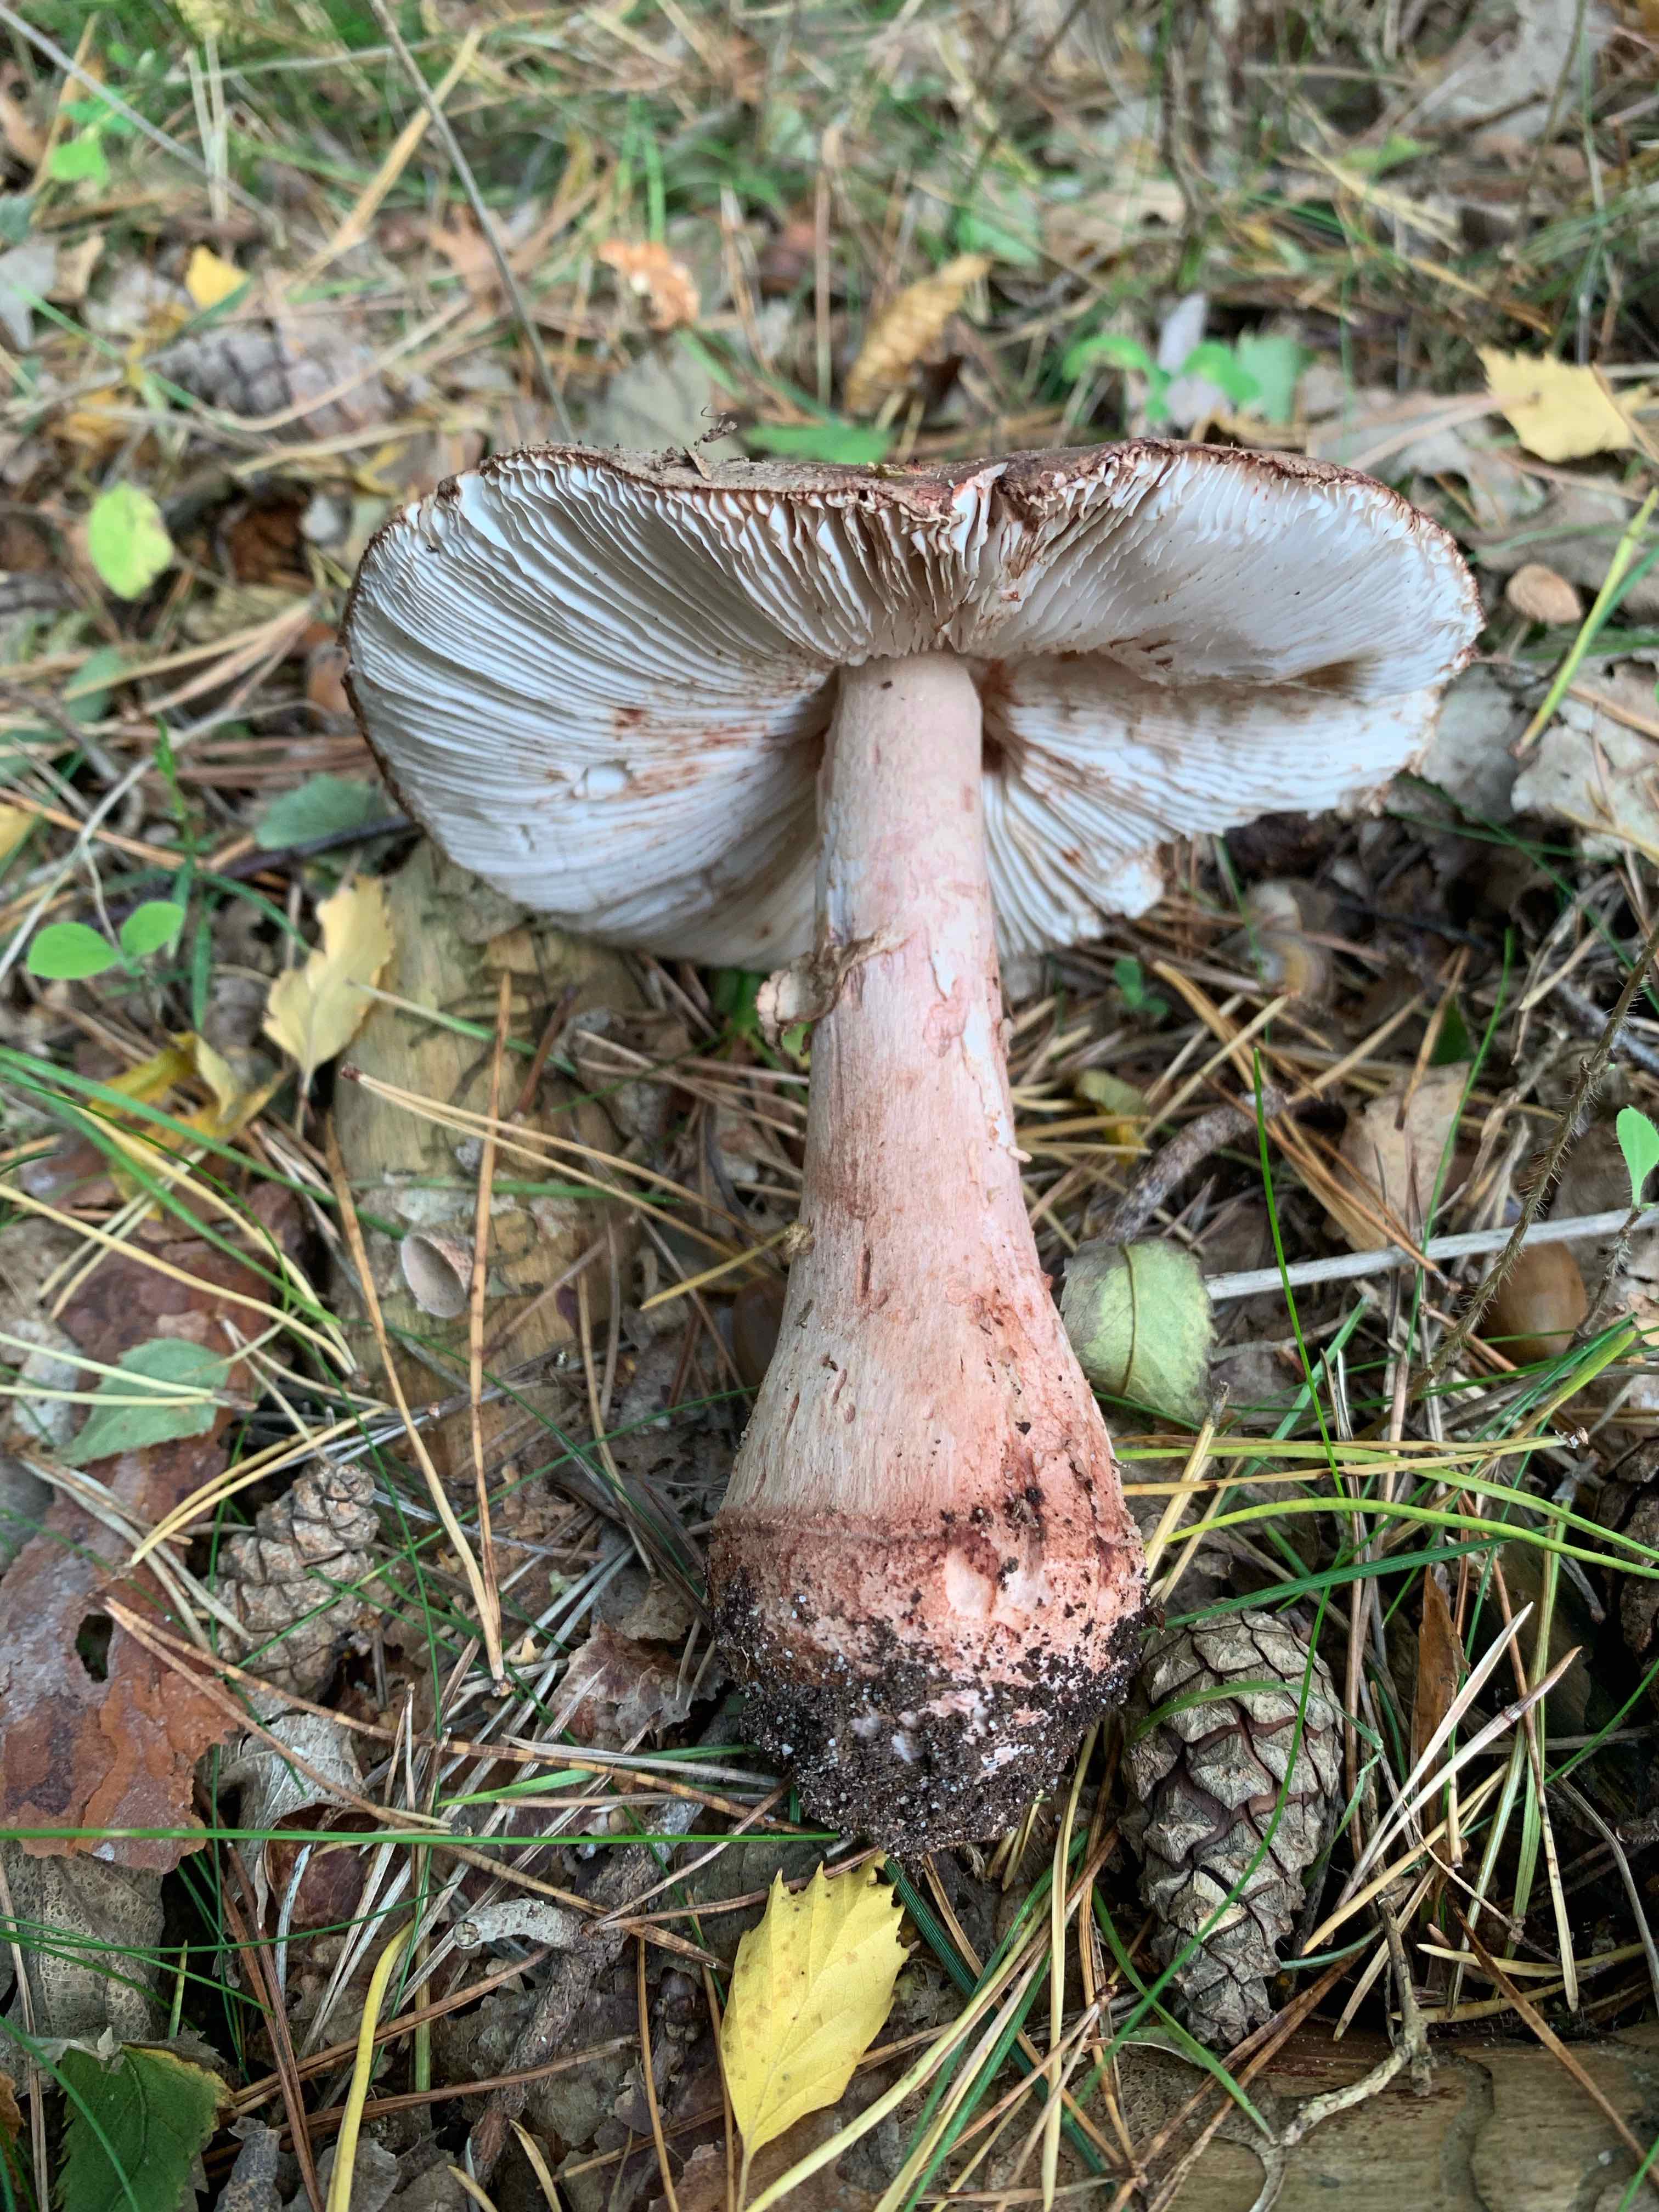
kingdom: Fungi
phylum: Basidiomycota
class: Agaricomycetes
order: Agaricales
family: Amanitaceae
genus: Amanita
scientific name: Amanita rubescens
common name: rødmende fluesvamp
